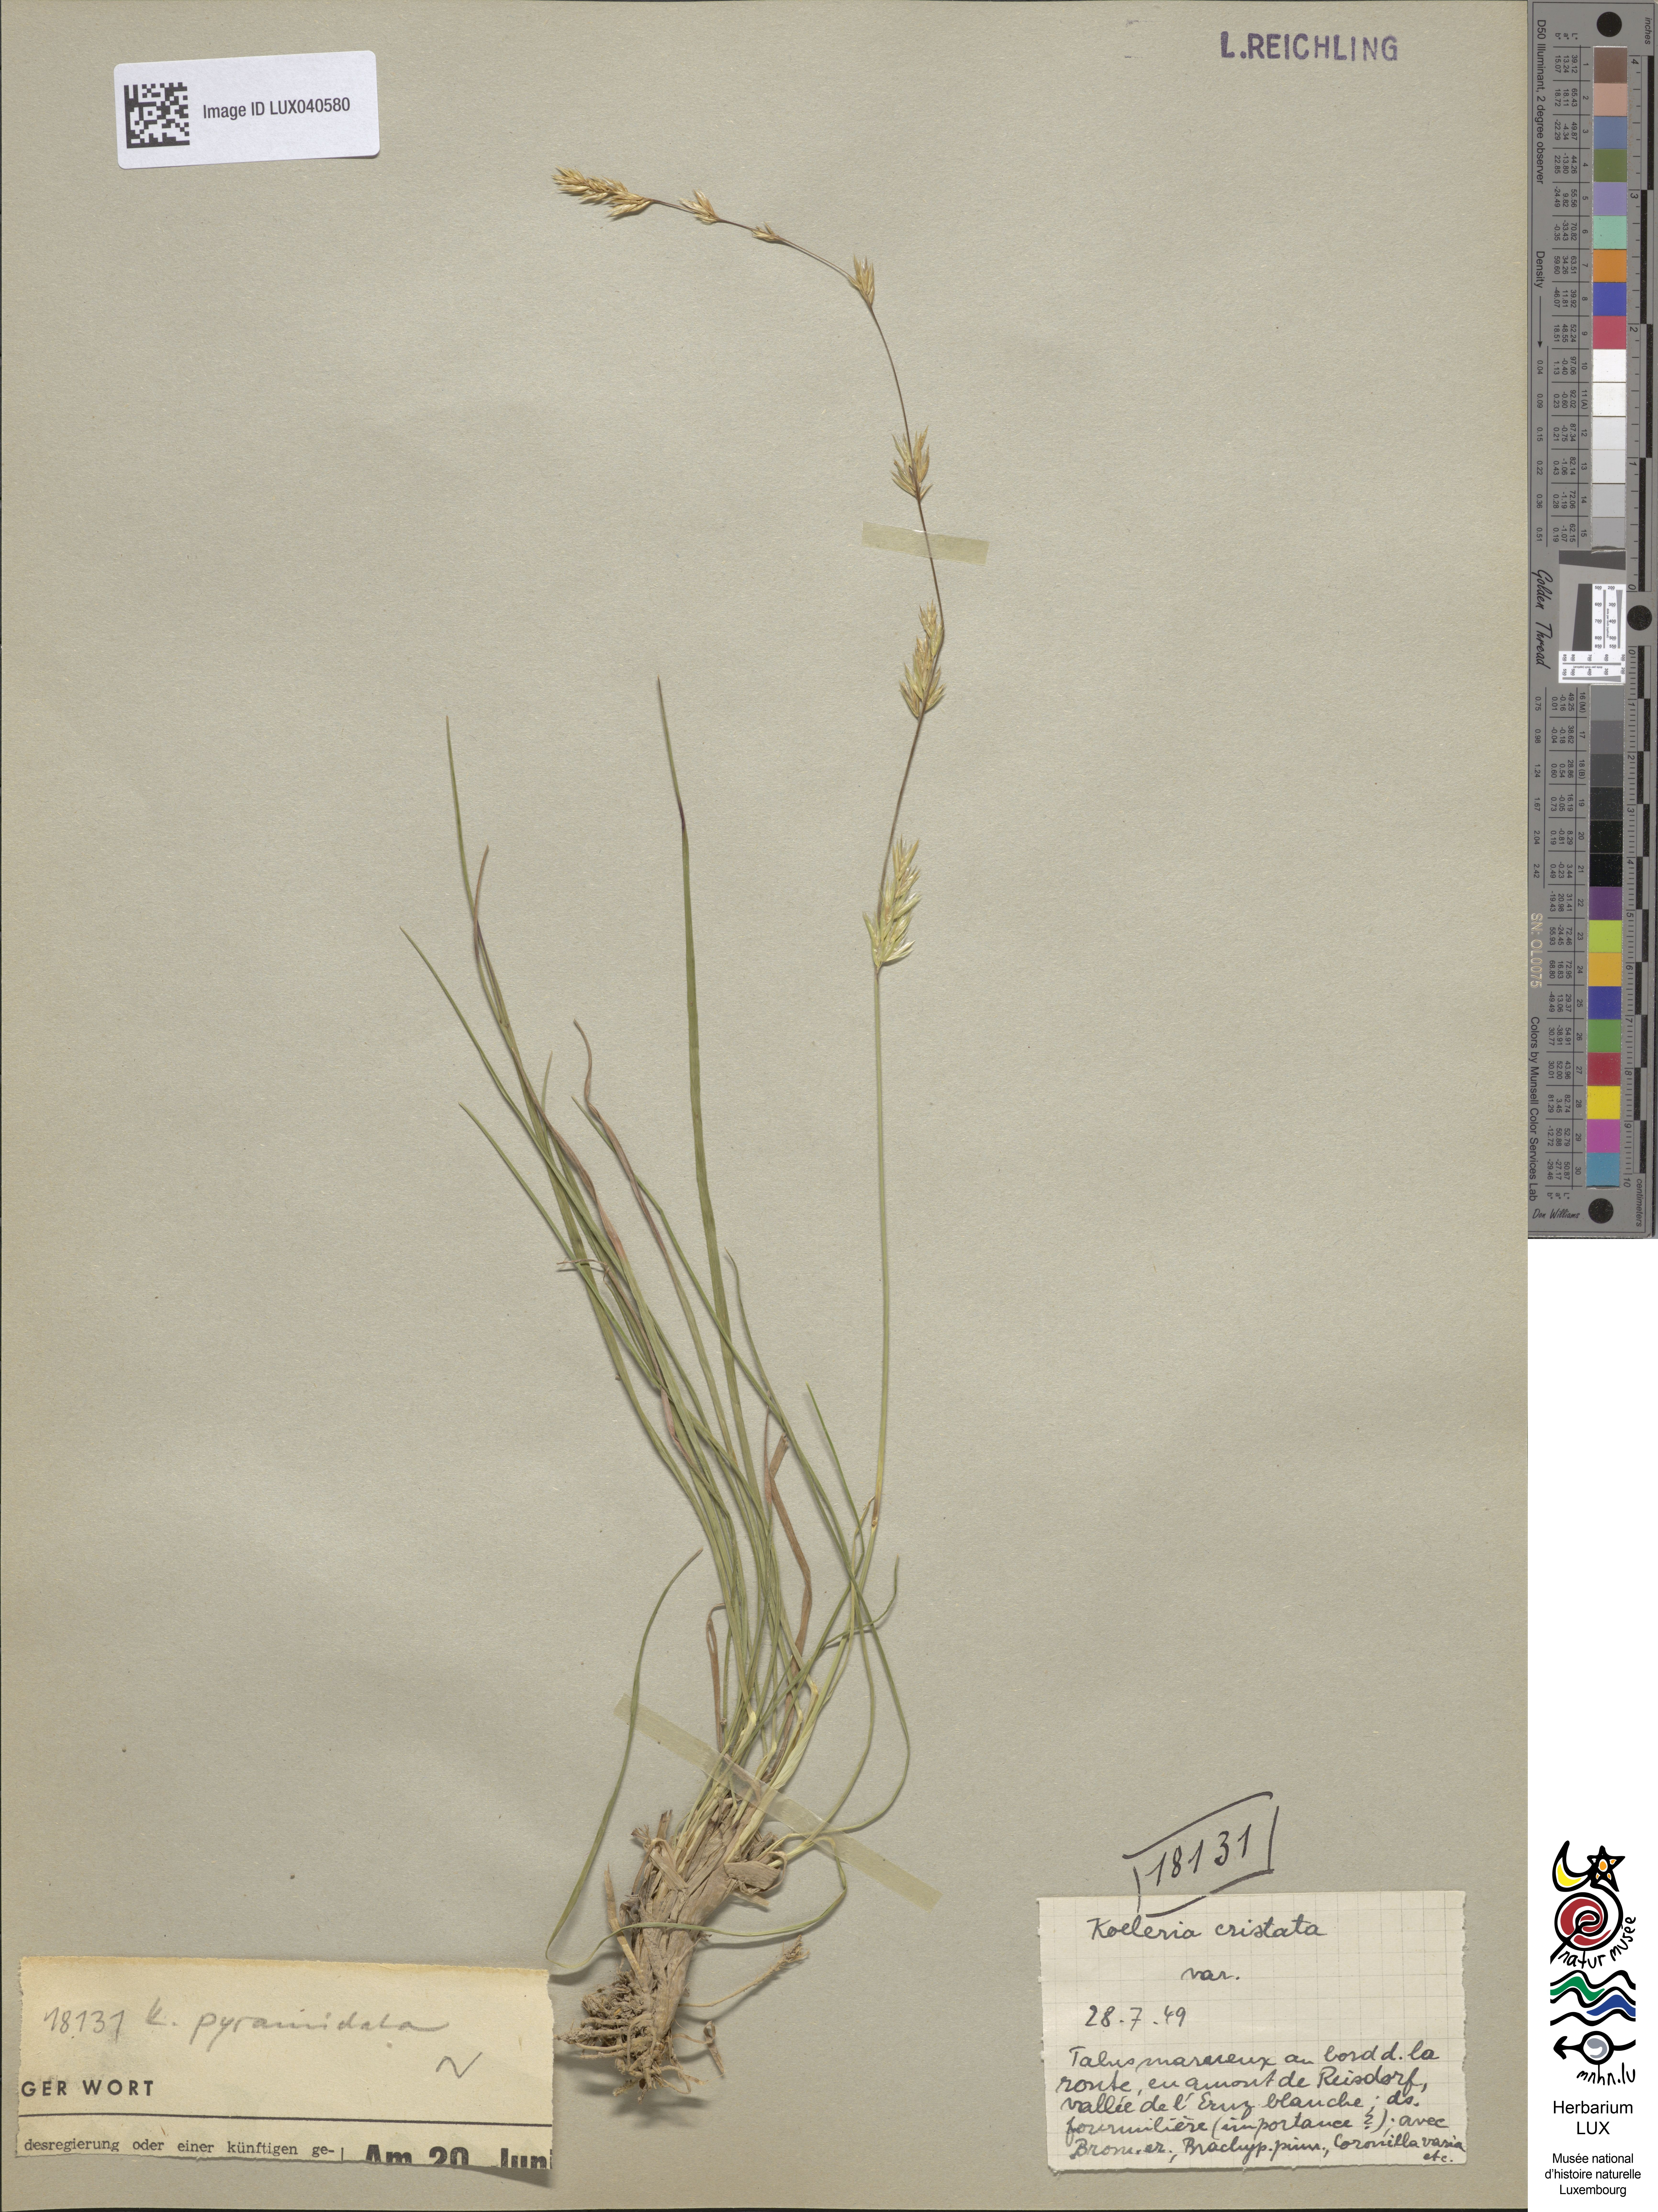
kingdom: Plantae
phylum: Tracheophyta
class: Liliopsida
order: Poales
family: Poaceae
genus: Koeleria
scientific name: Koeleria pyramidata
